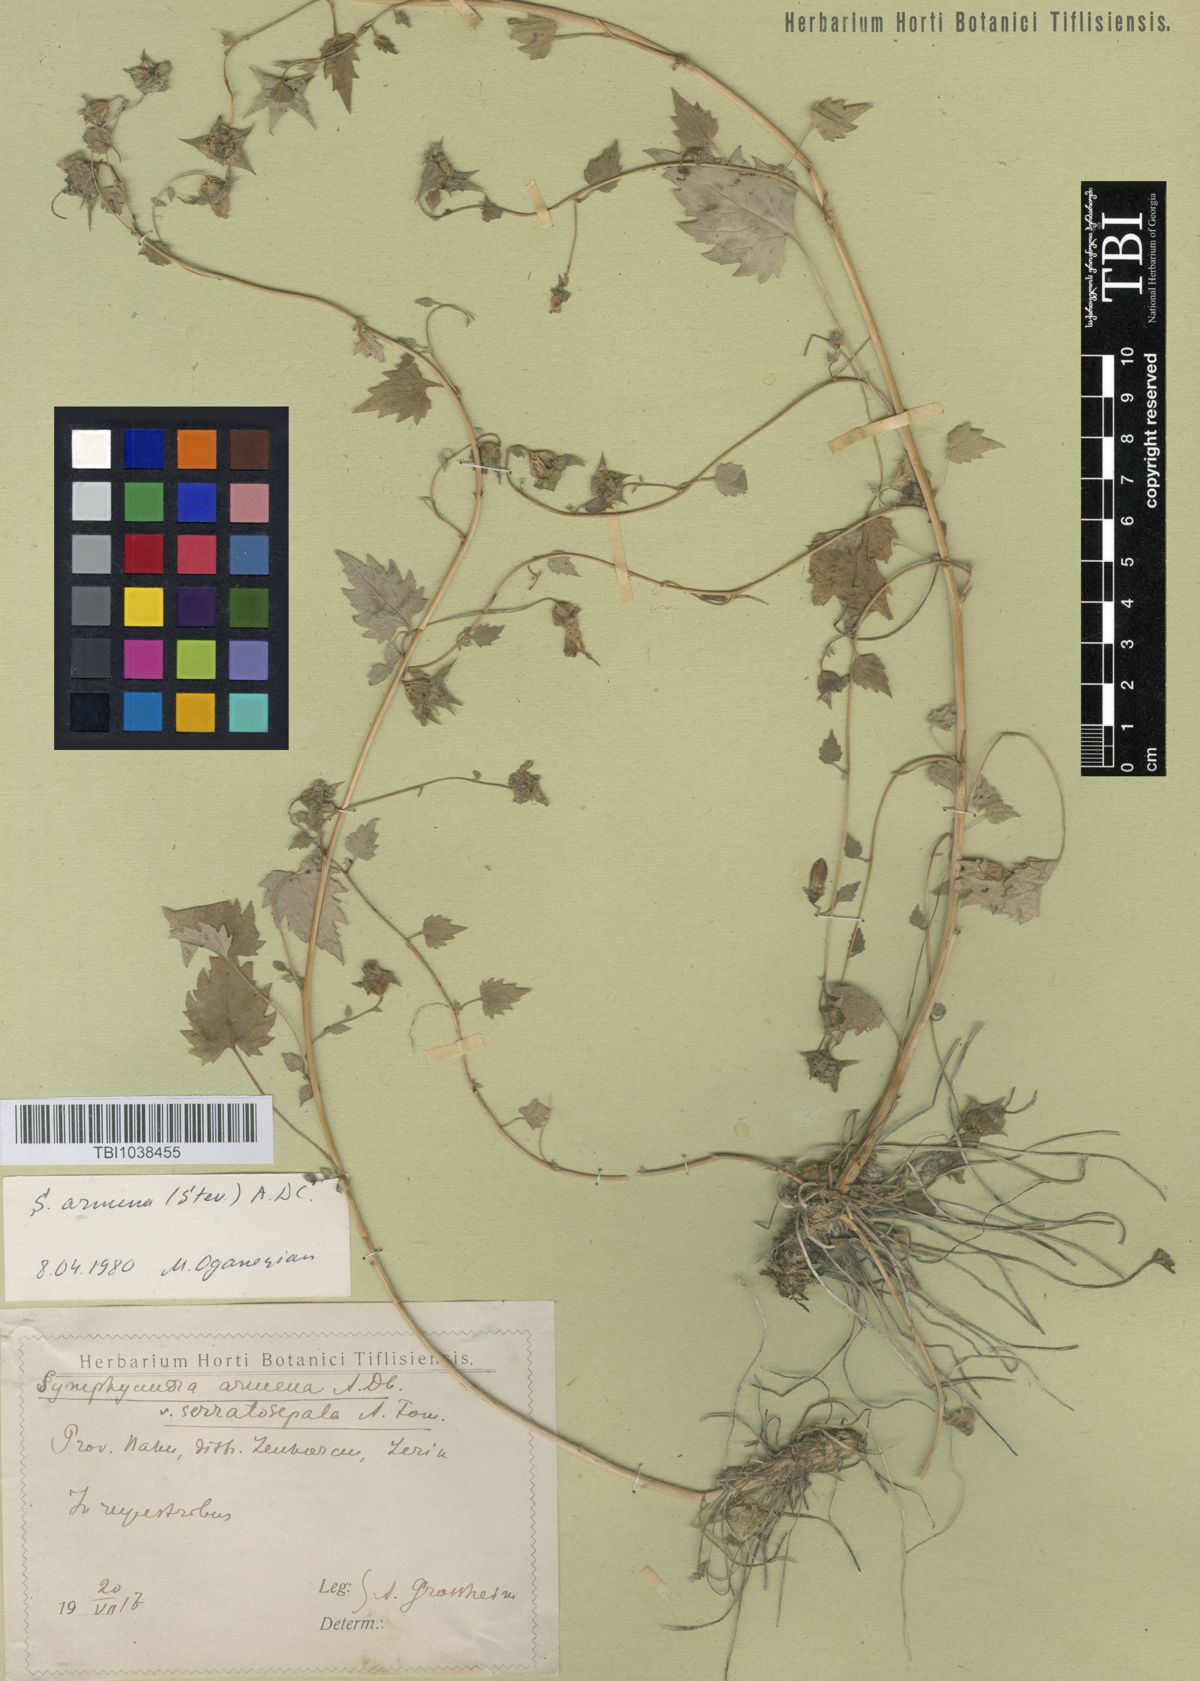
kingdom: Plantae
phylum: Tracheophyta
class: Magnoliopsida
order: Asterales
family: Campanulaceae
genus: Campanula
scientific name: Campanula armena
